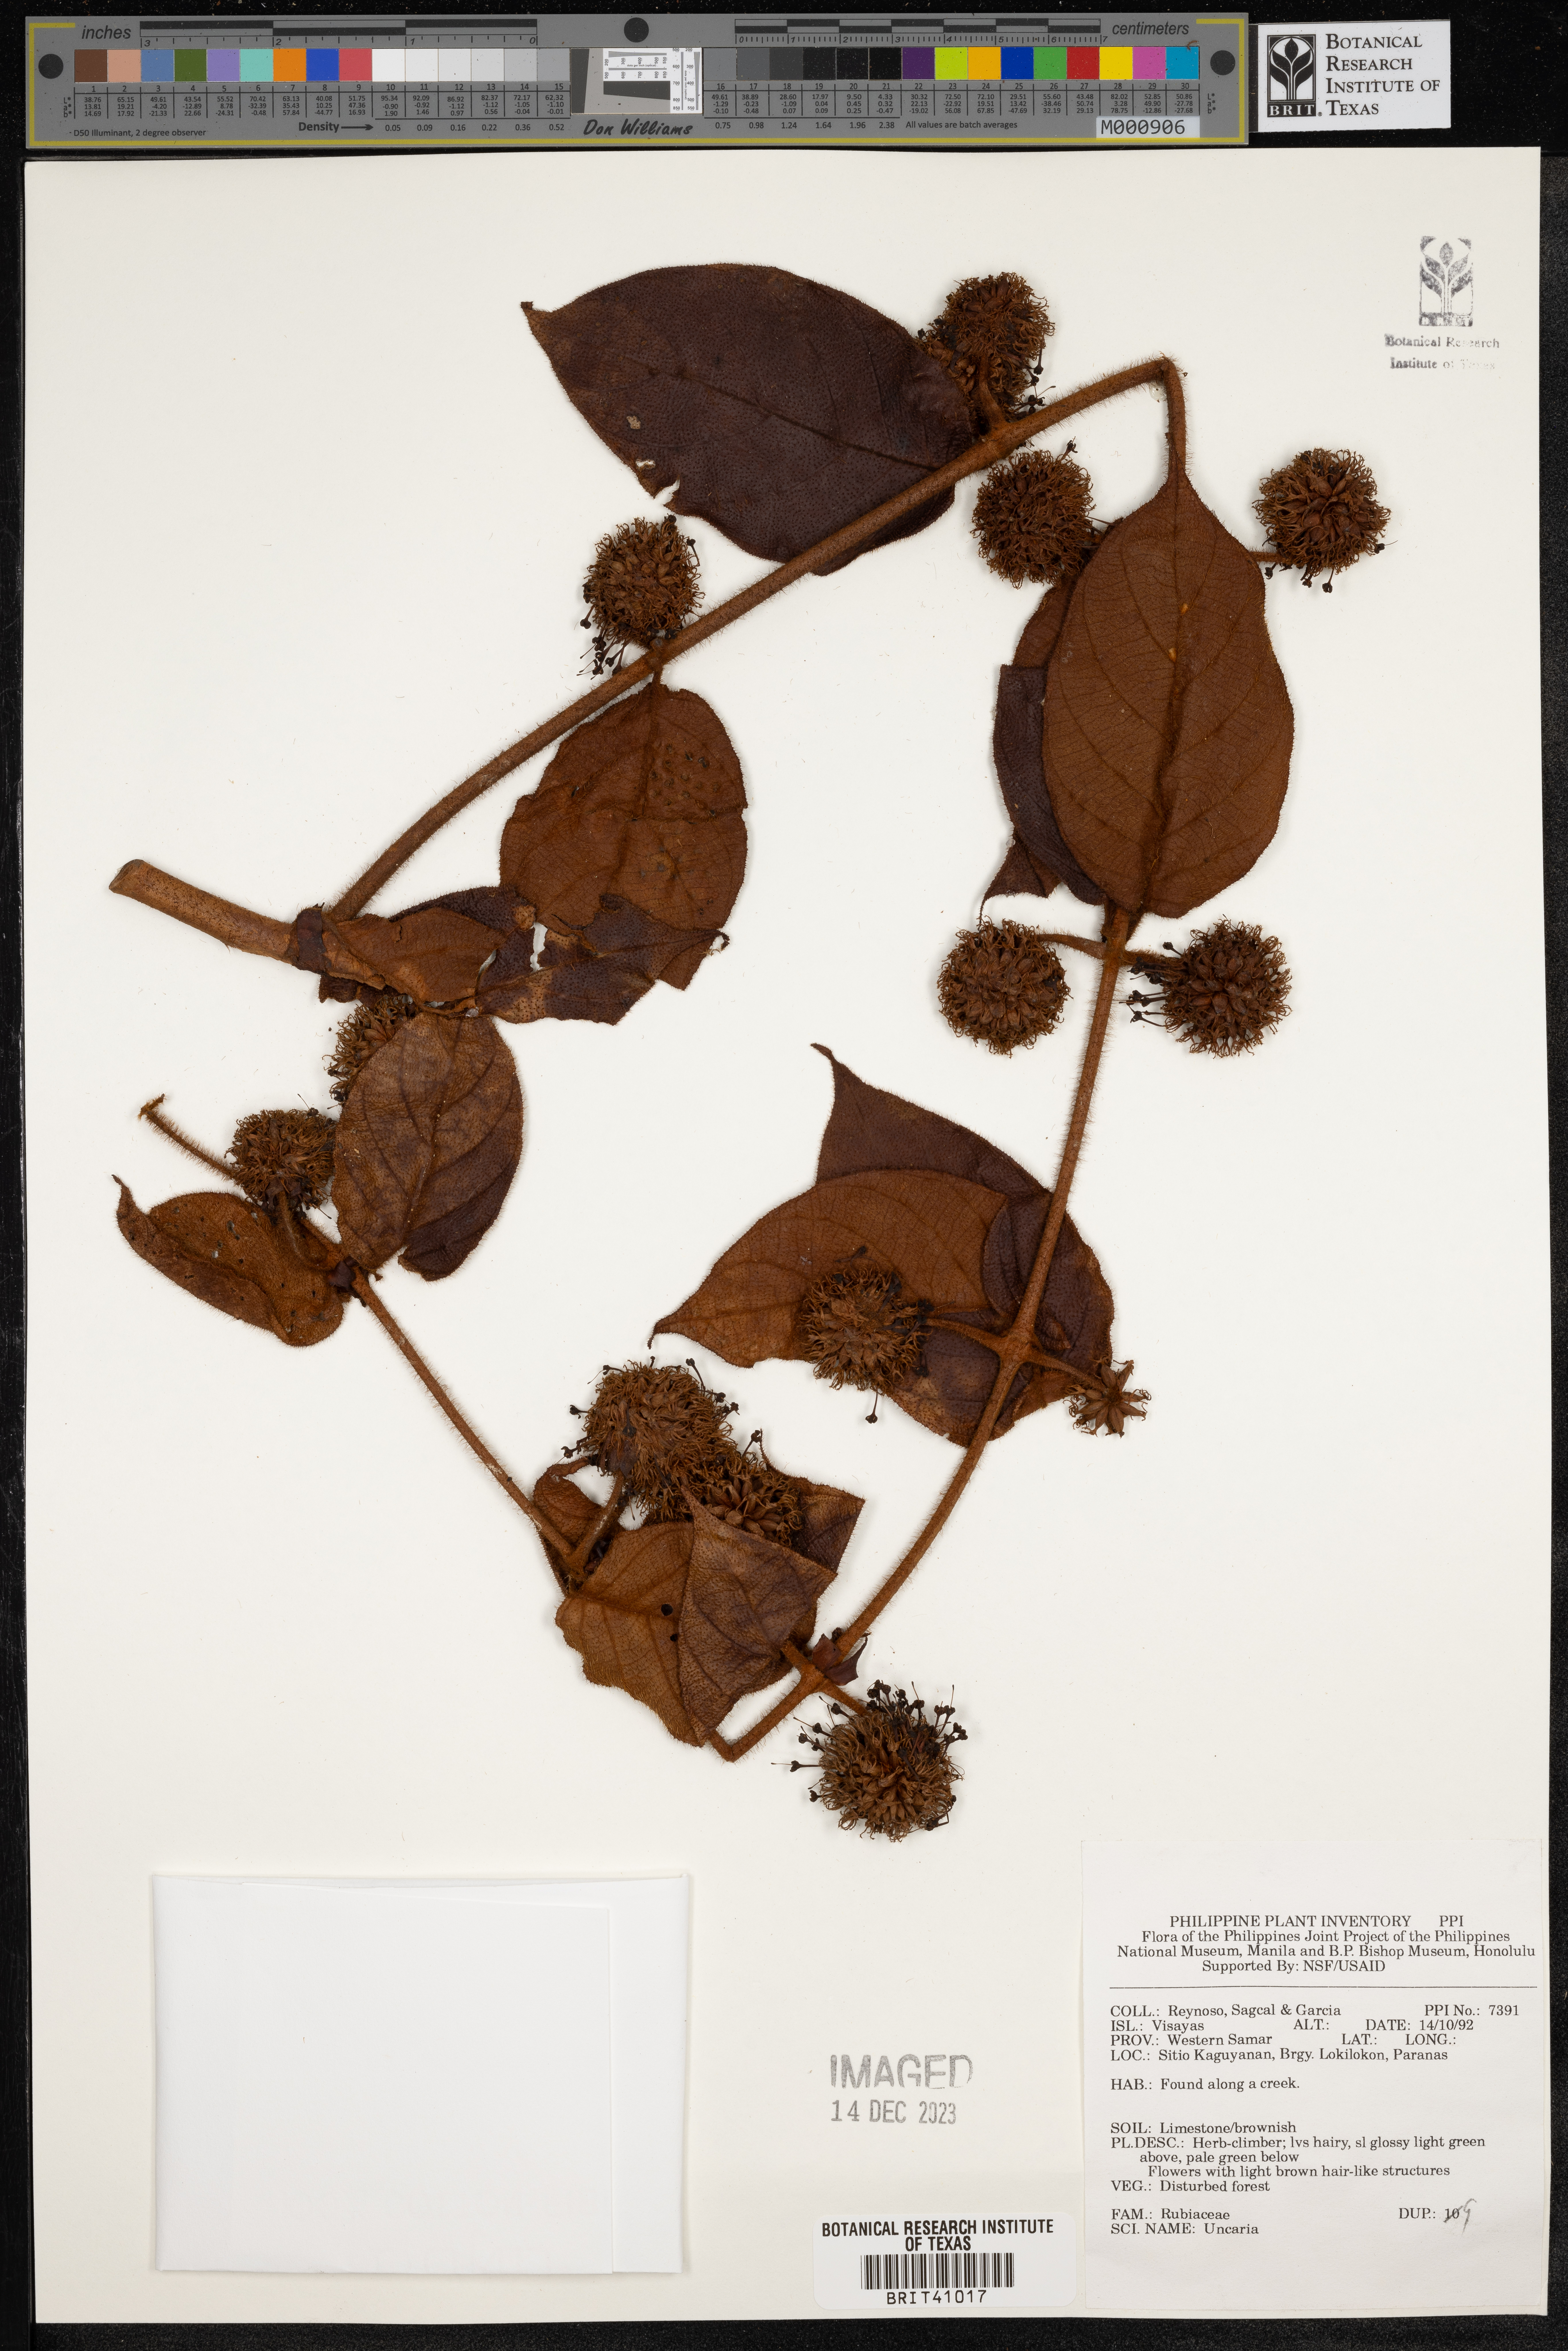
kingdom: Plantae
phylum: Tracheophyta
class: Magnoliopsida
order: Gentianales
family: Rubiaceae
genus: Uncaria
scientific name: Uncaria
